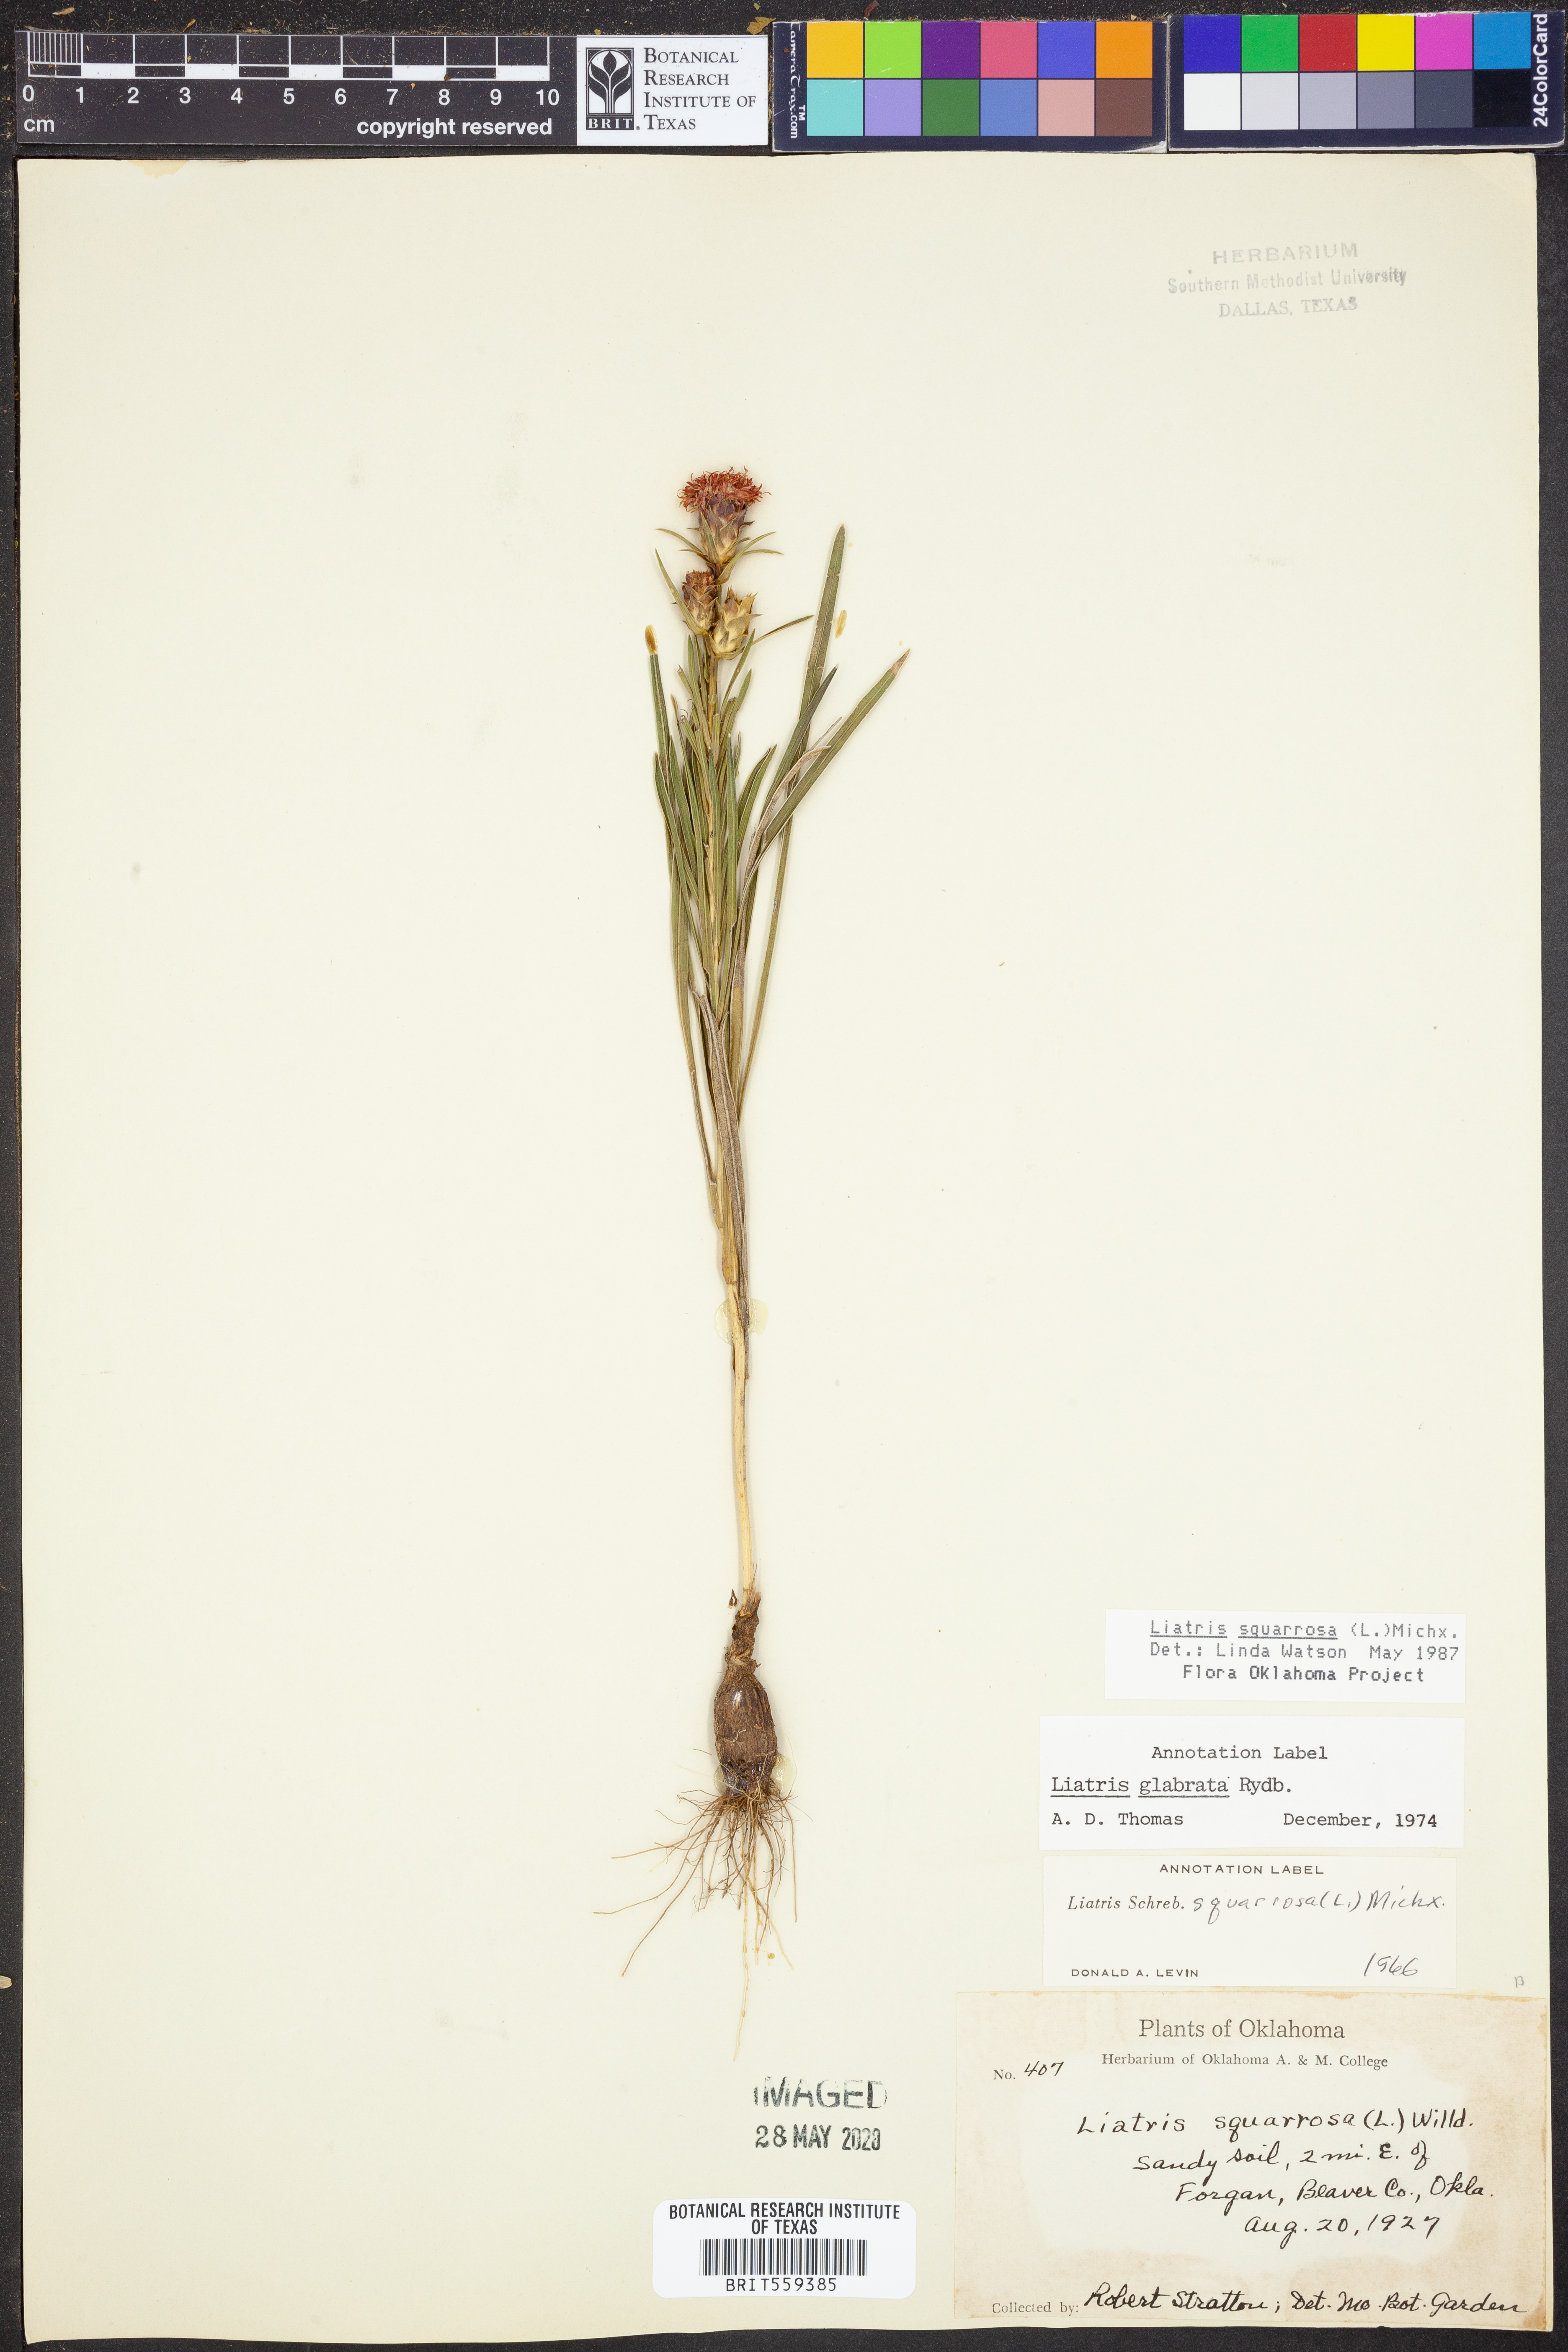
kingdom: Plantae
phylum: Tracheophyta
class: Magnoliopsida
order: Asterales
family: Asteraceae
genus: Liatris
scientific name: Liatris squarrosa
